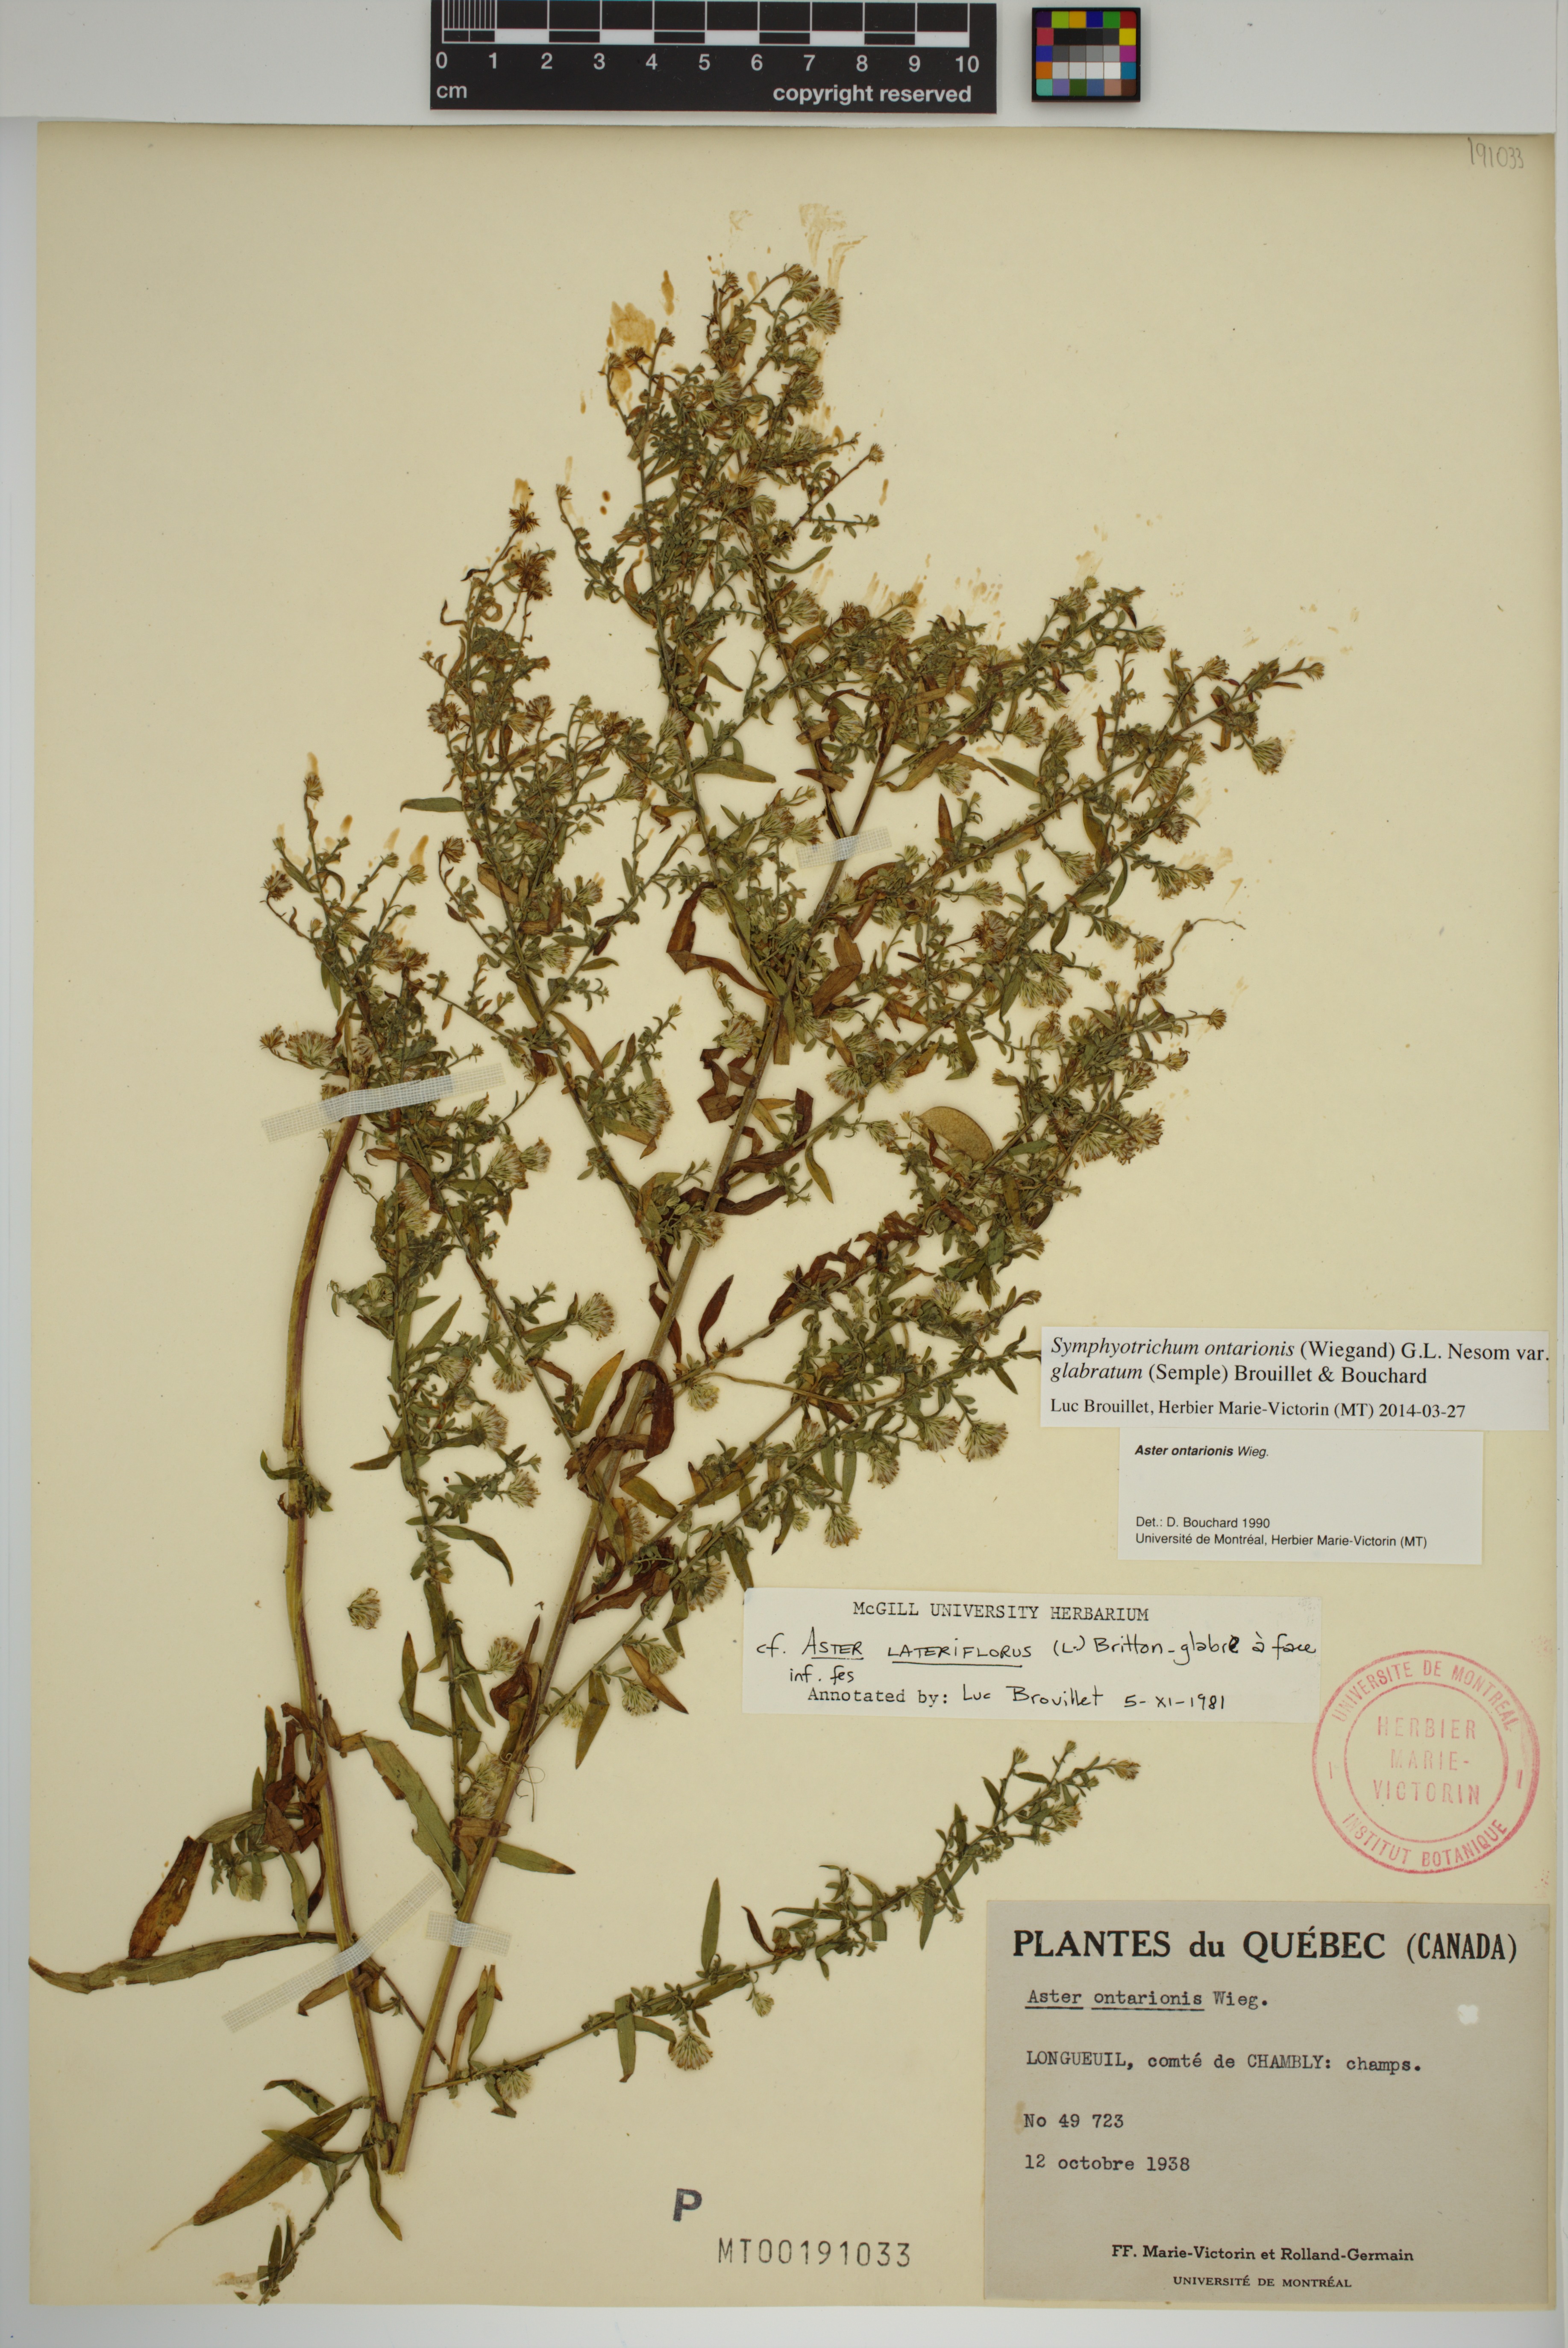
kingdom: Plantae
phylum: Tracheophyta
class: Magnoliopsida
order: Asterales
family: Asteraceae
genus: Symphyotrichum
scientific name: Symphyotrichum ontarionis
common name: Bottomland aster
